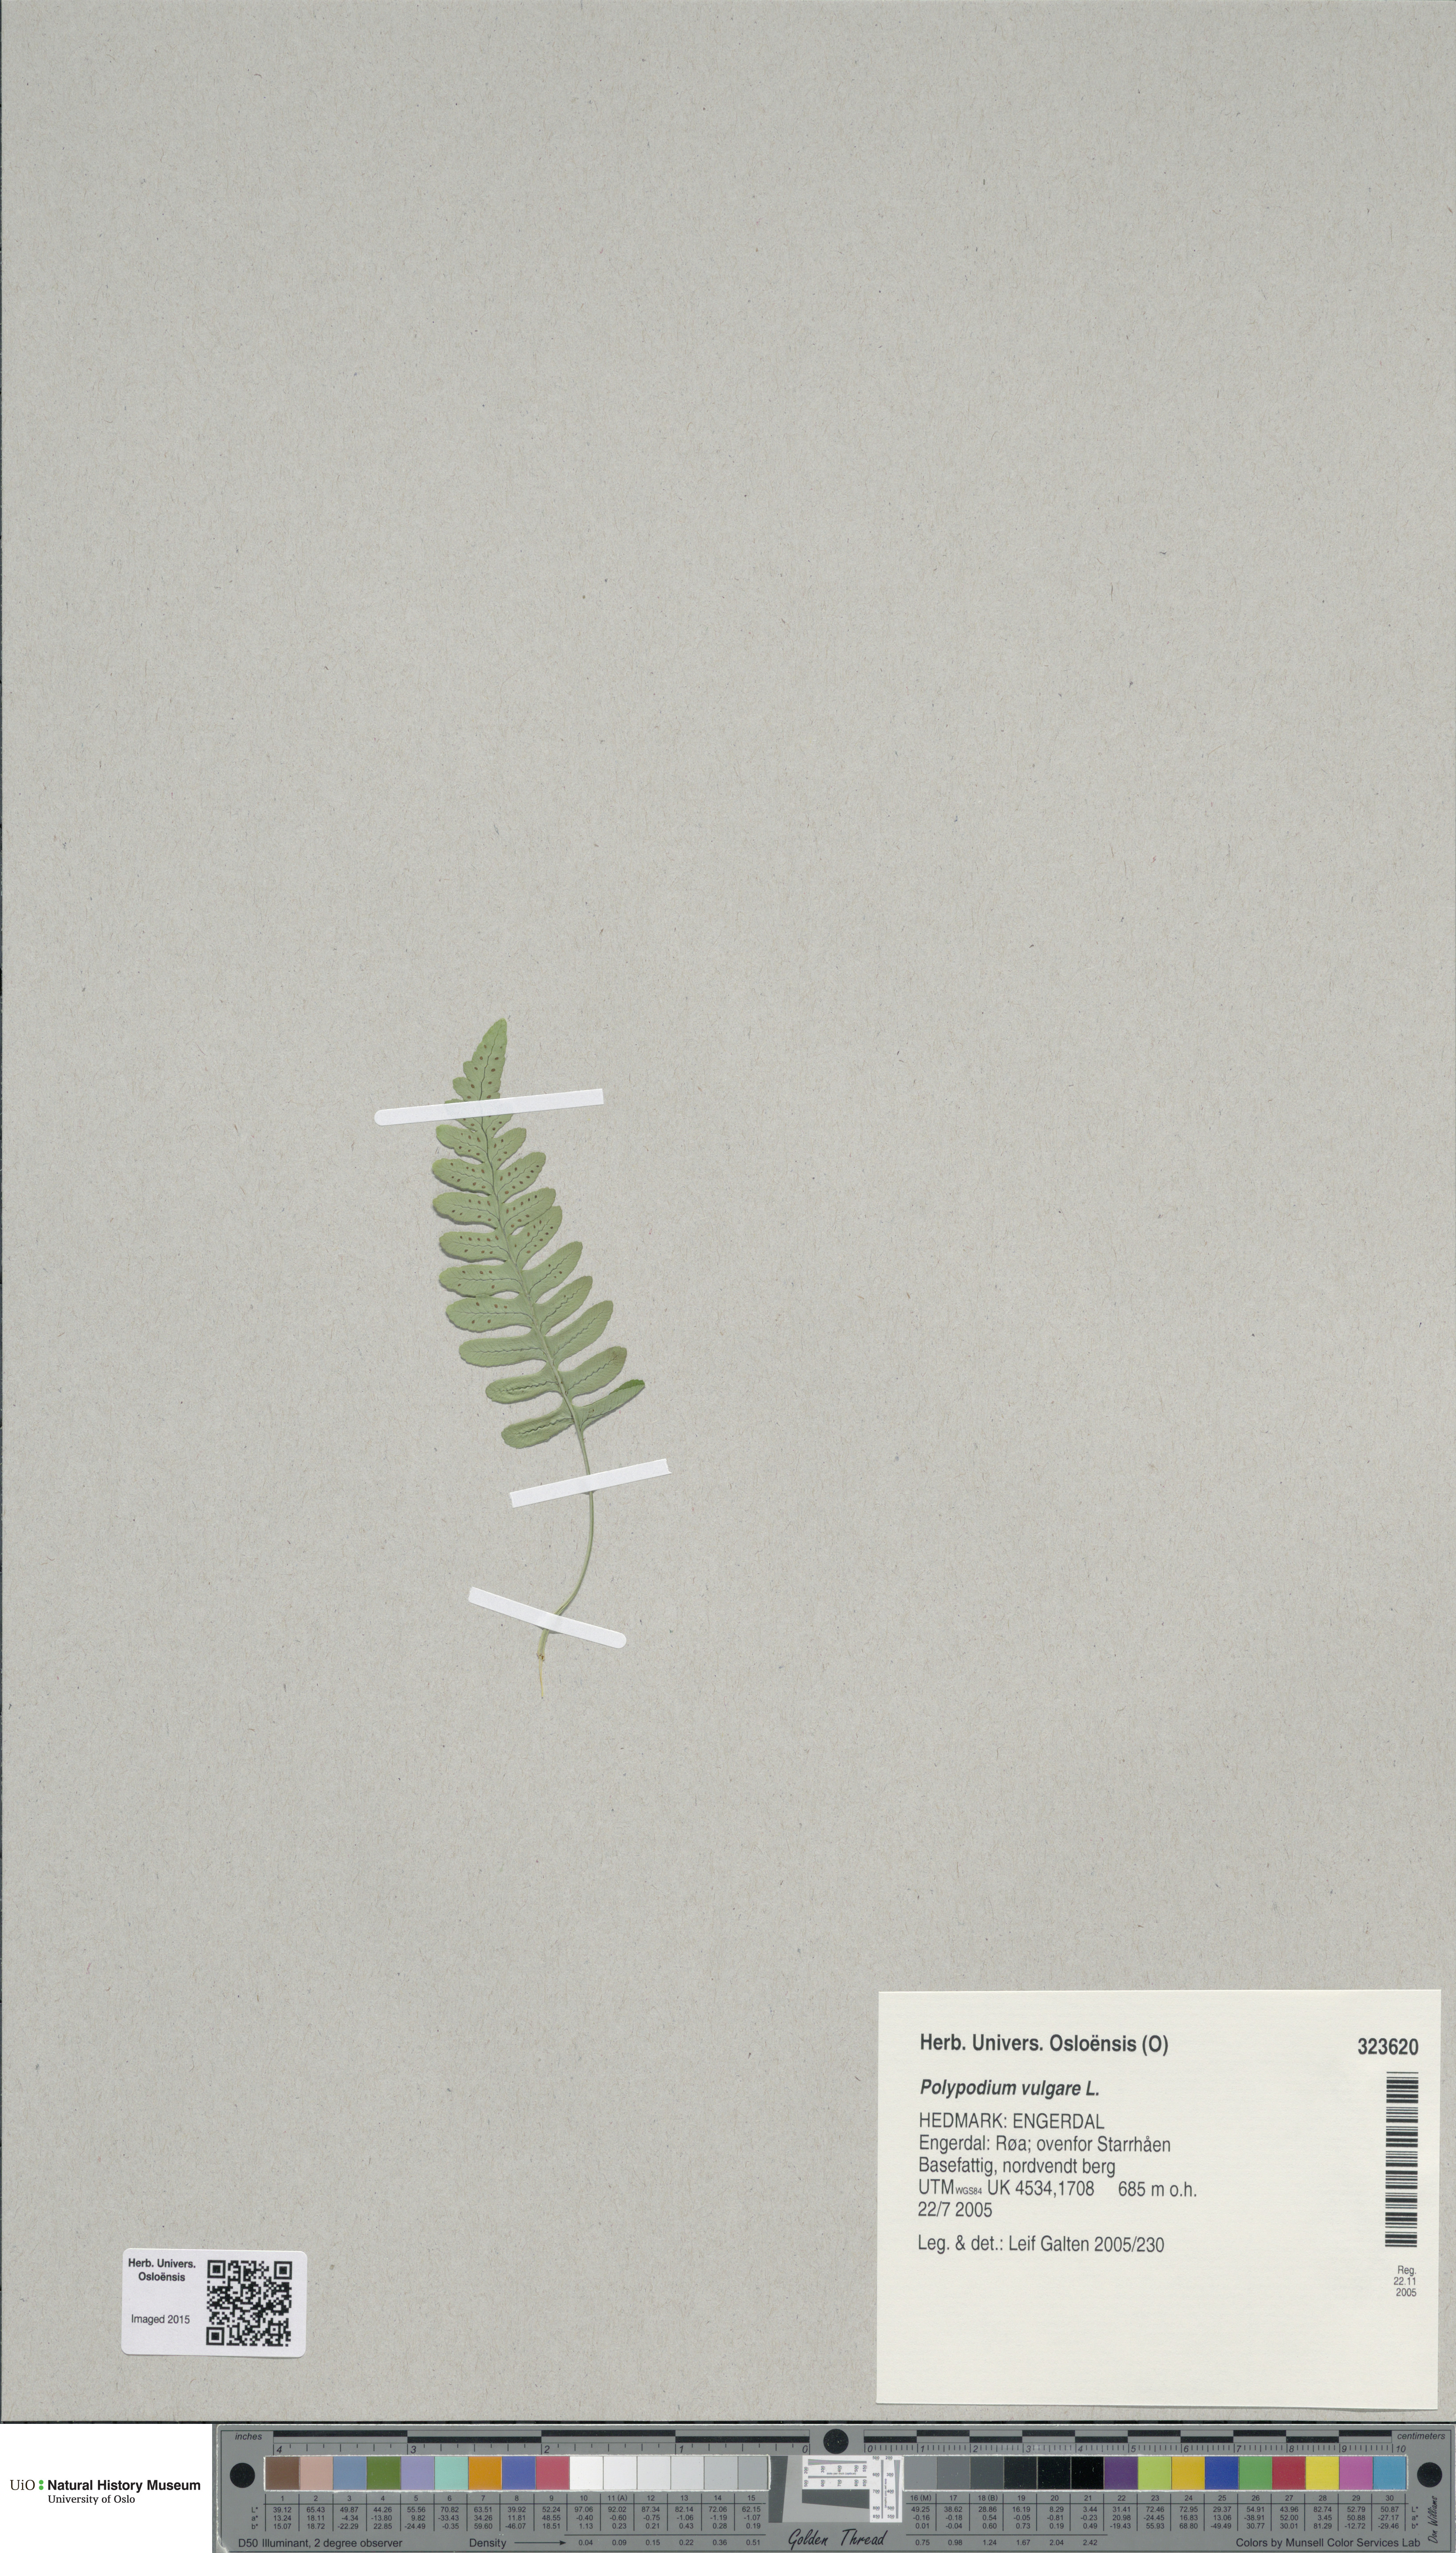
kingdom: Plantae
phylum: Tracheophyta
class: Polypodiopsida
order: Polypodiales
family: Polypodiaceae
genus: Polypodium
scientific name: Polypodium vulgare
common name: Common polypody
